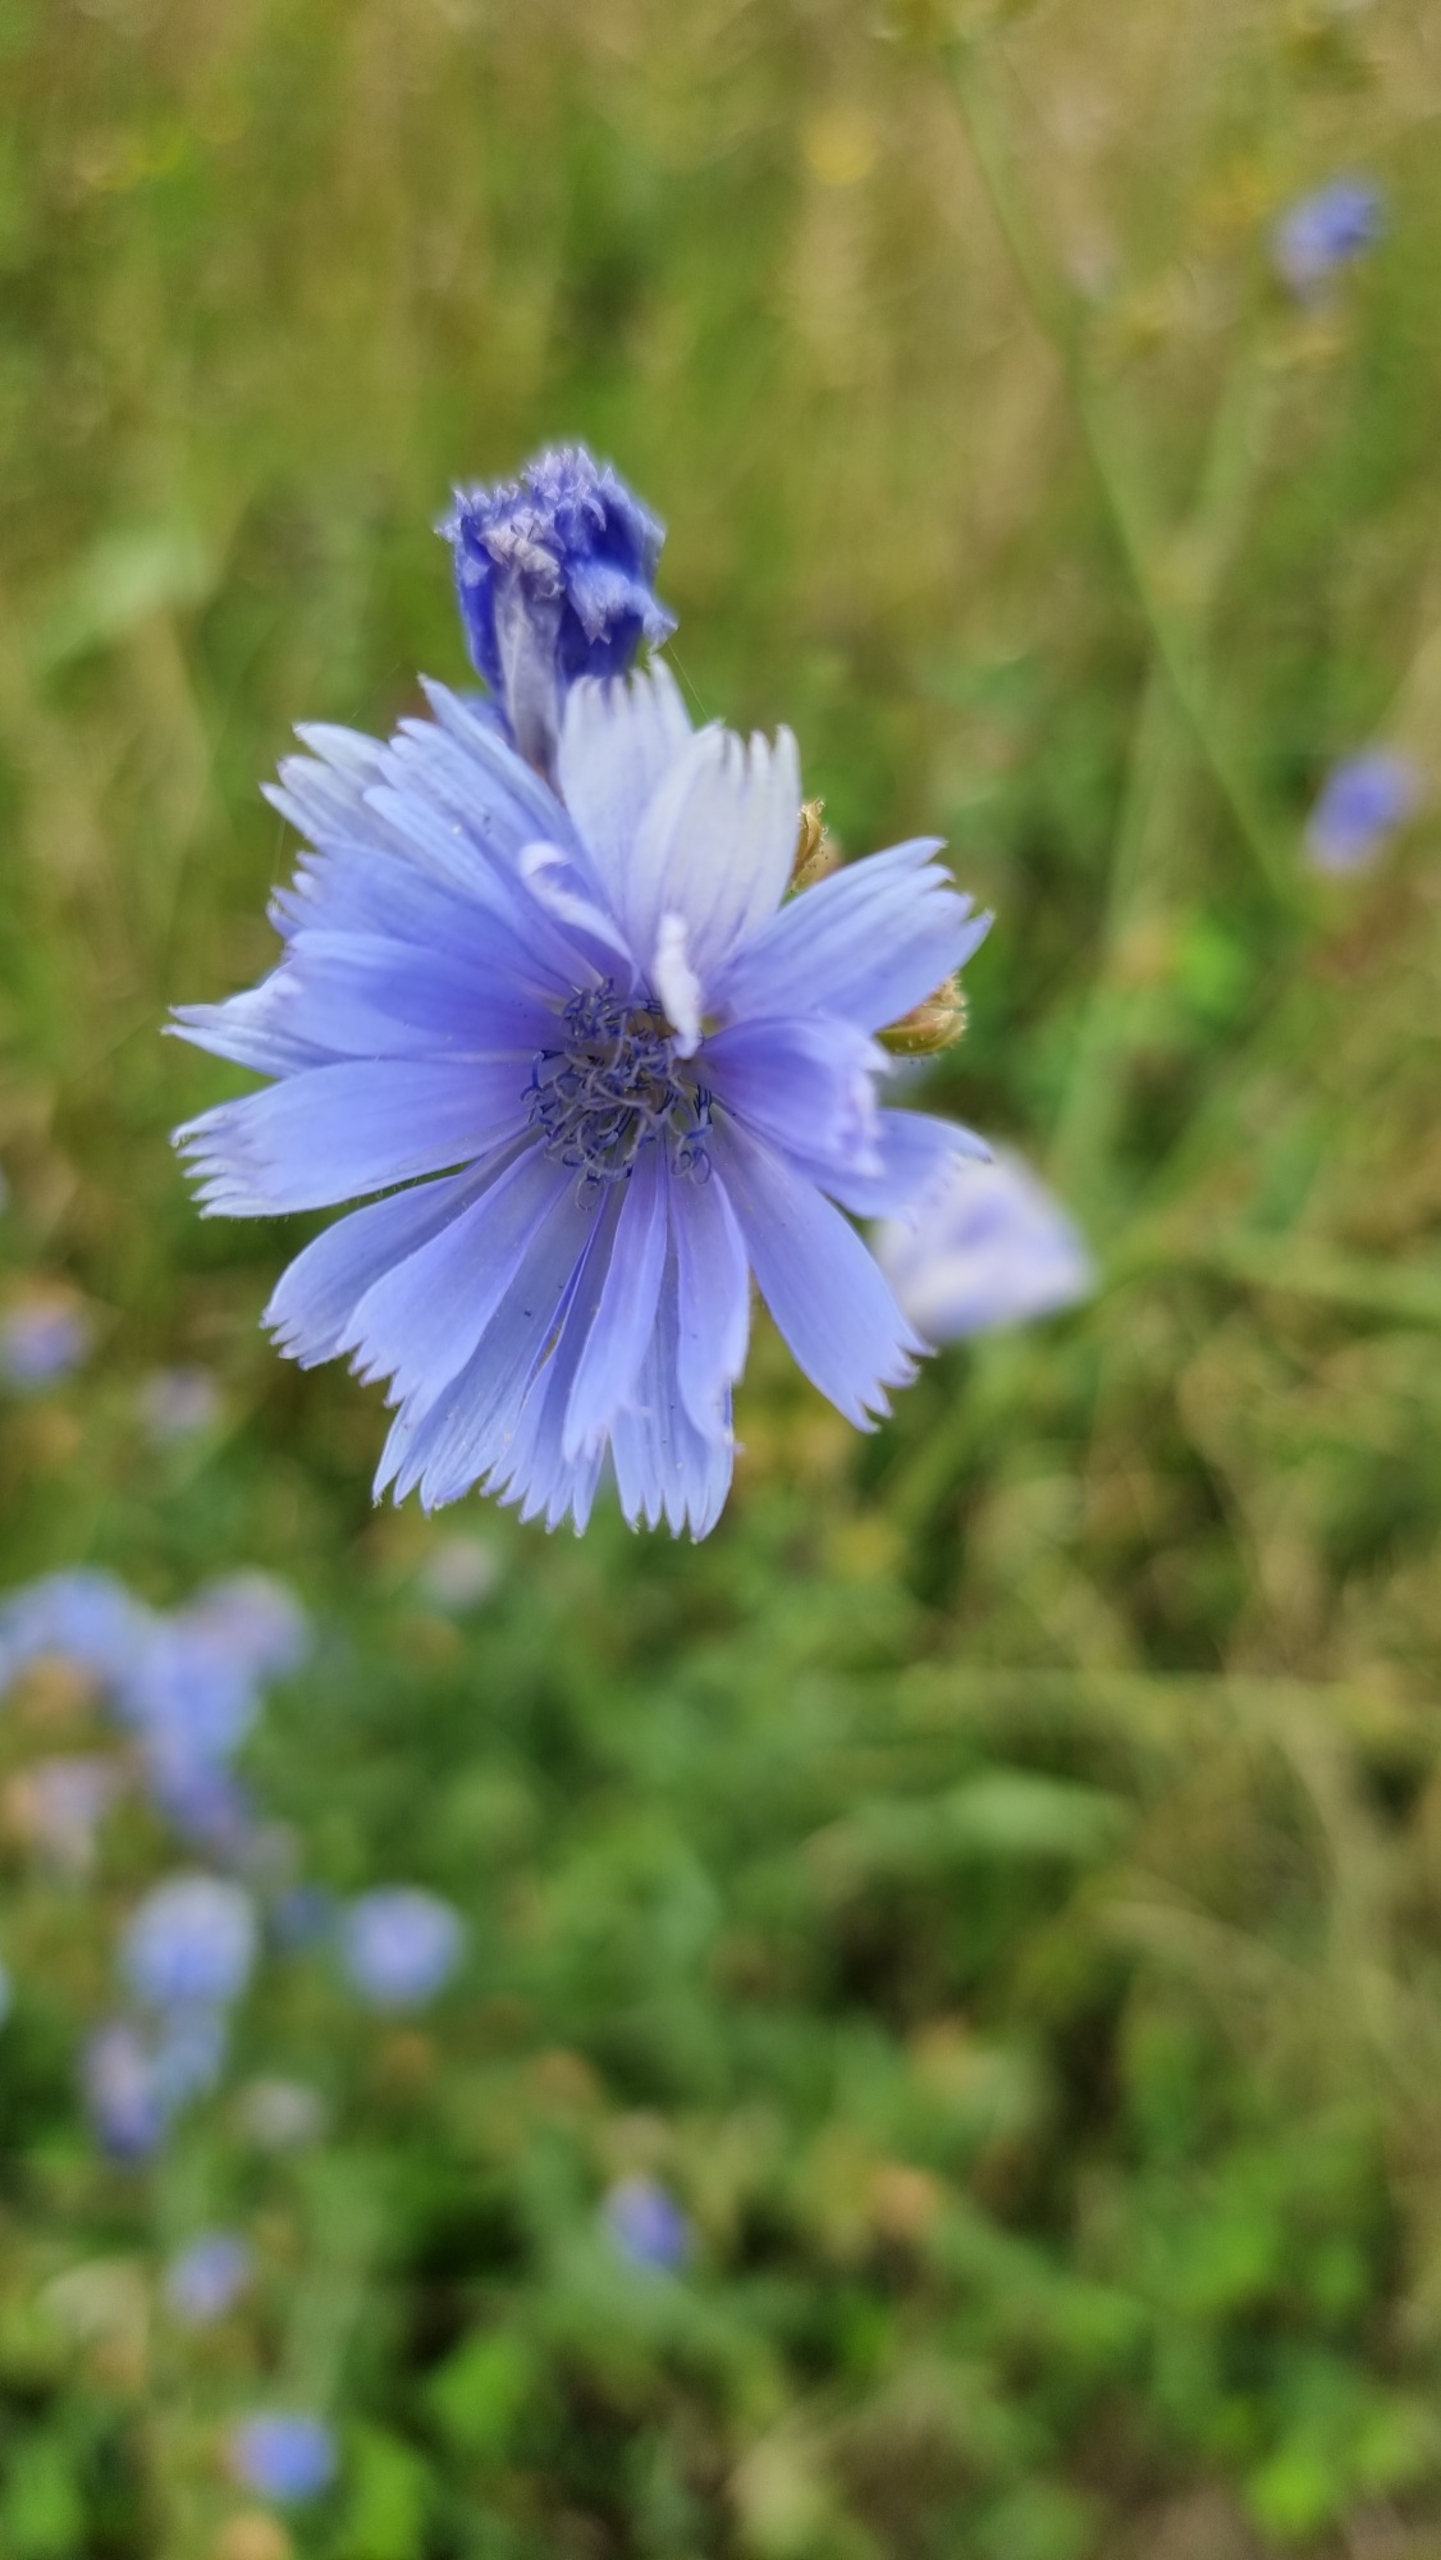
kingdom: Plantae
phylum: Tracheophyta
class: Magnoliopsida
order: Asterales
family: Asteraceae
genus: Cichorium
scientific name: Cichorium intybus
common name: Cikorie
